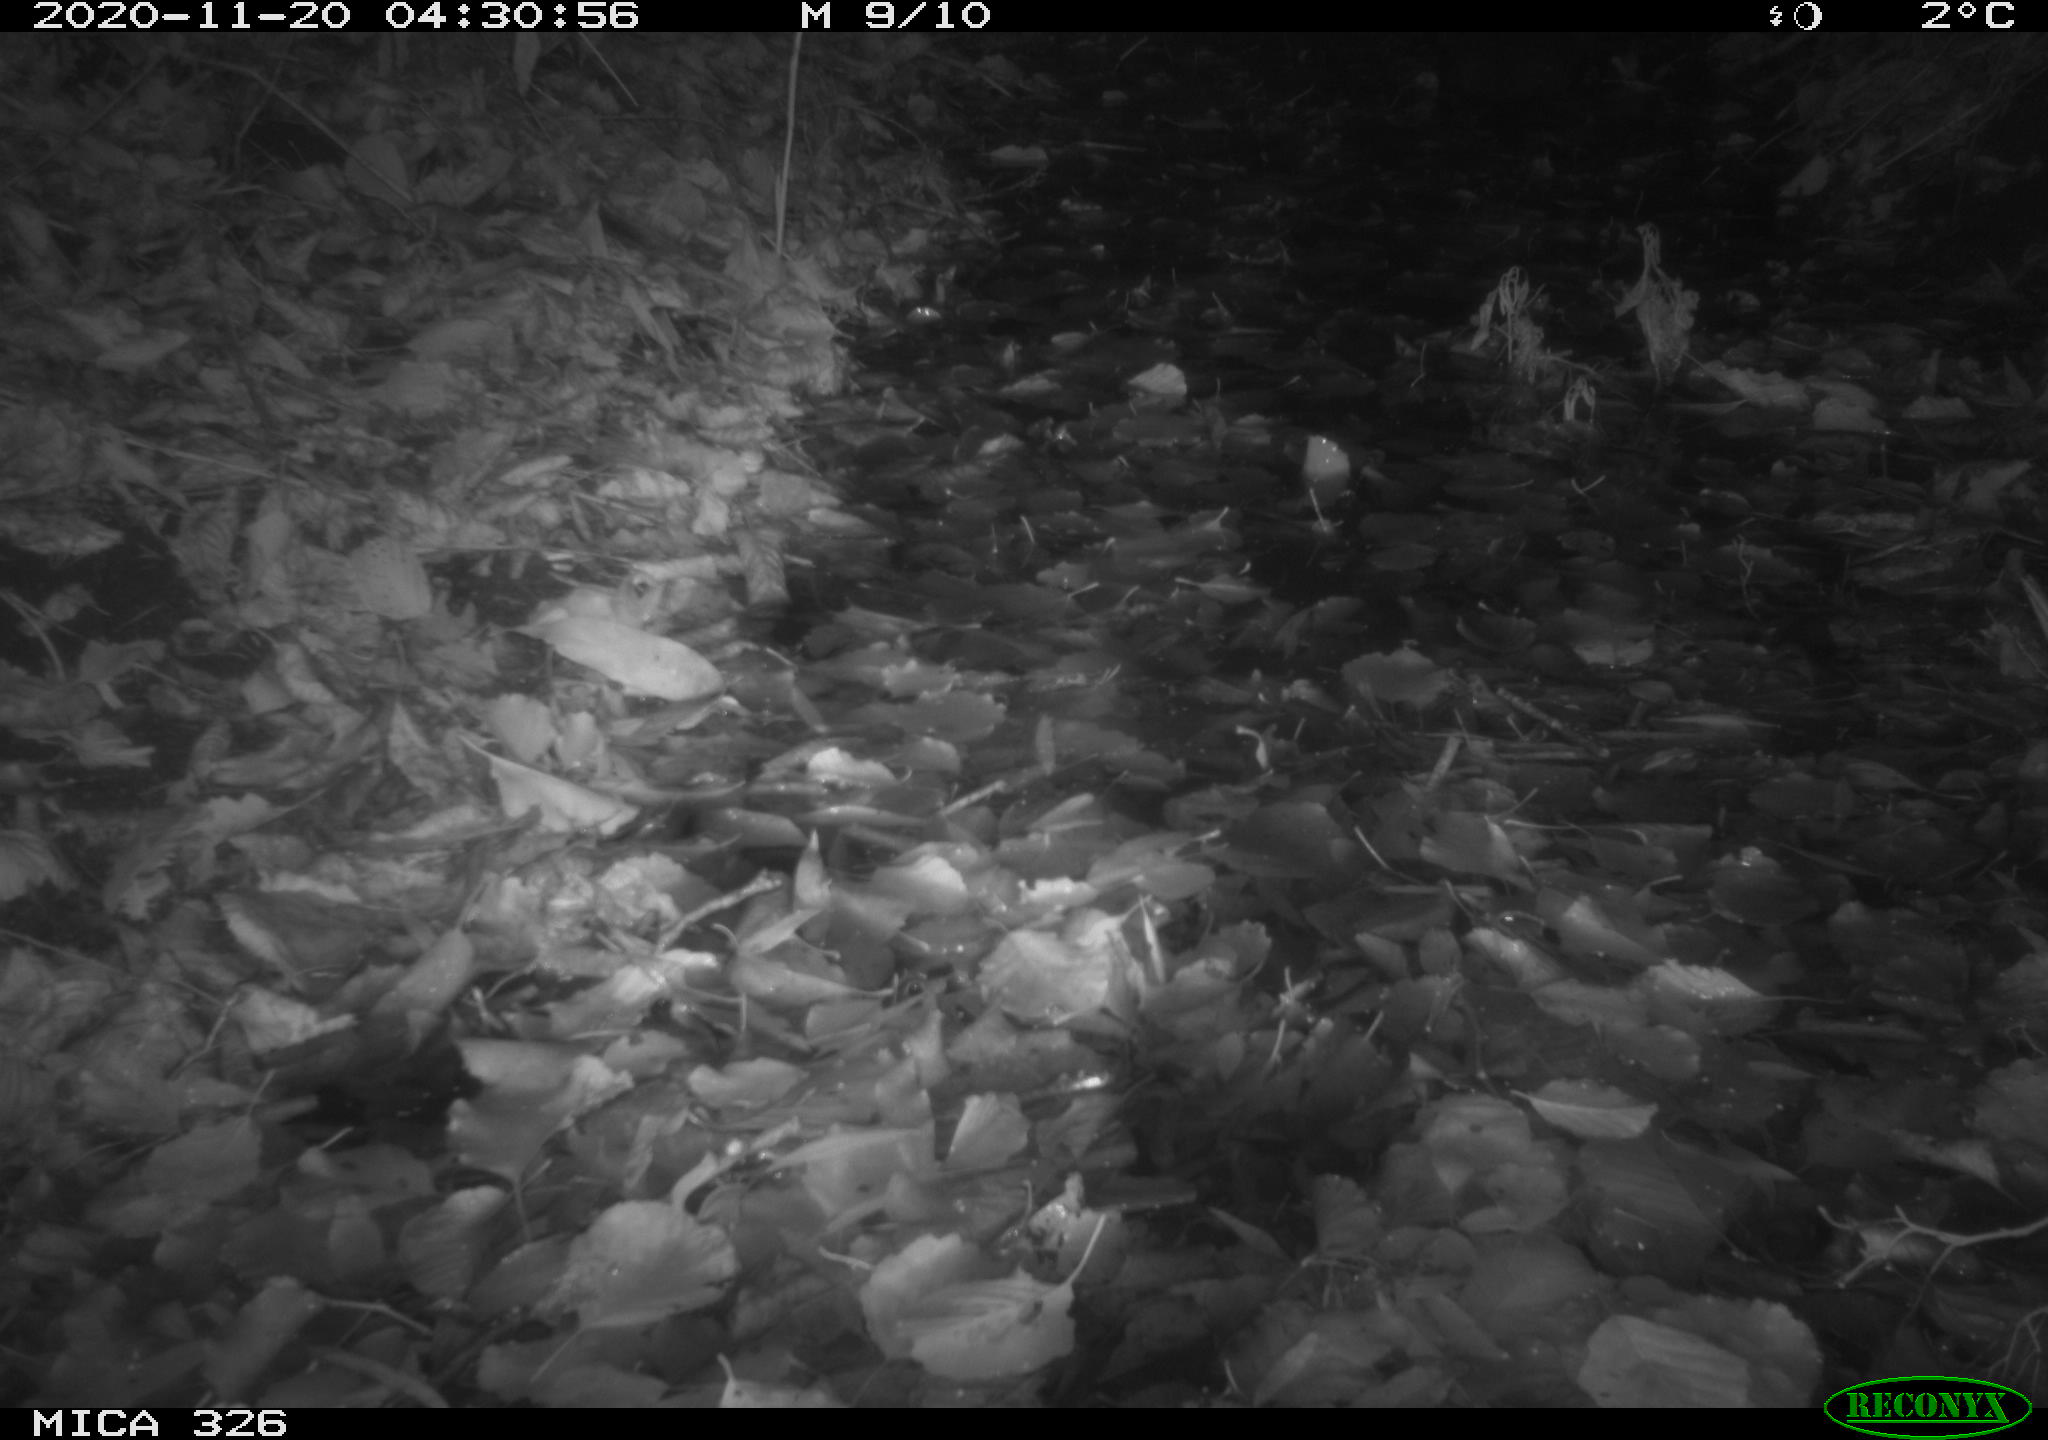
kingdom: Animalia
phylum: Chordata
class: Mammalia
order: Carnivora
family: Mustelidae
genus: Lutra
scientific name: Lutra lutra
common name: European otter
